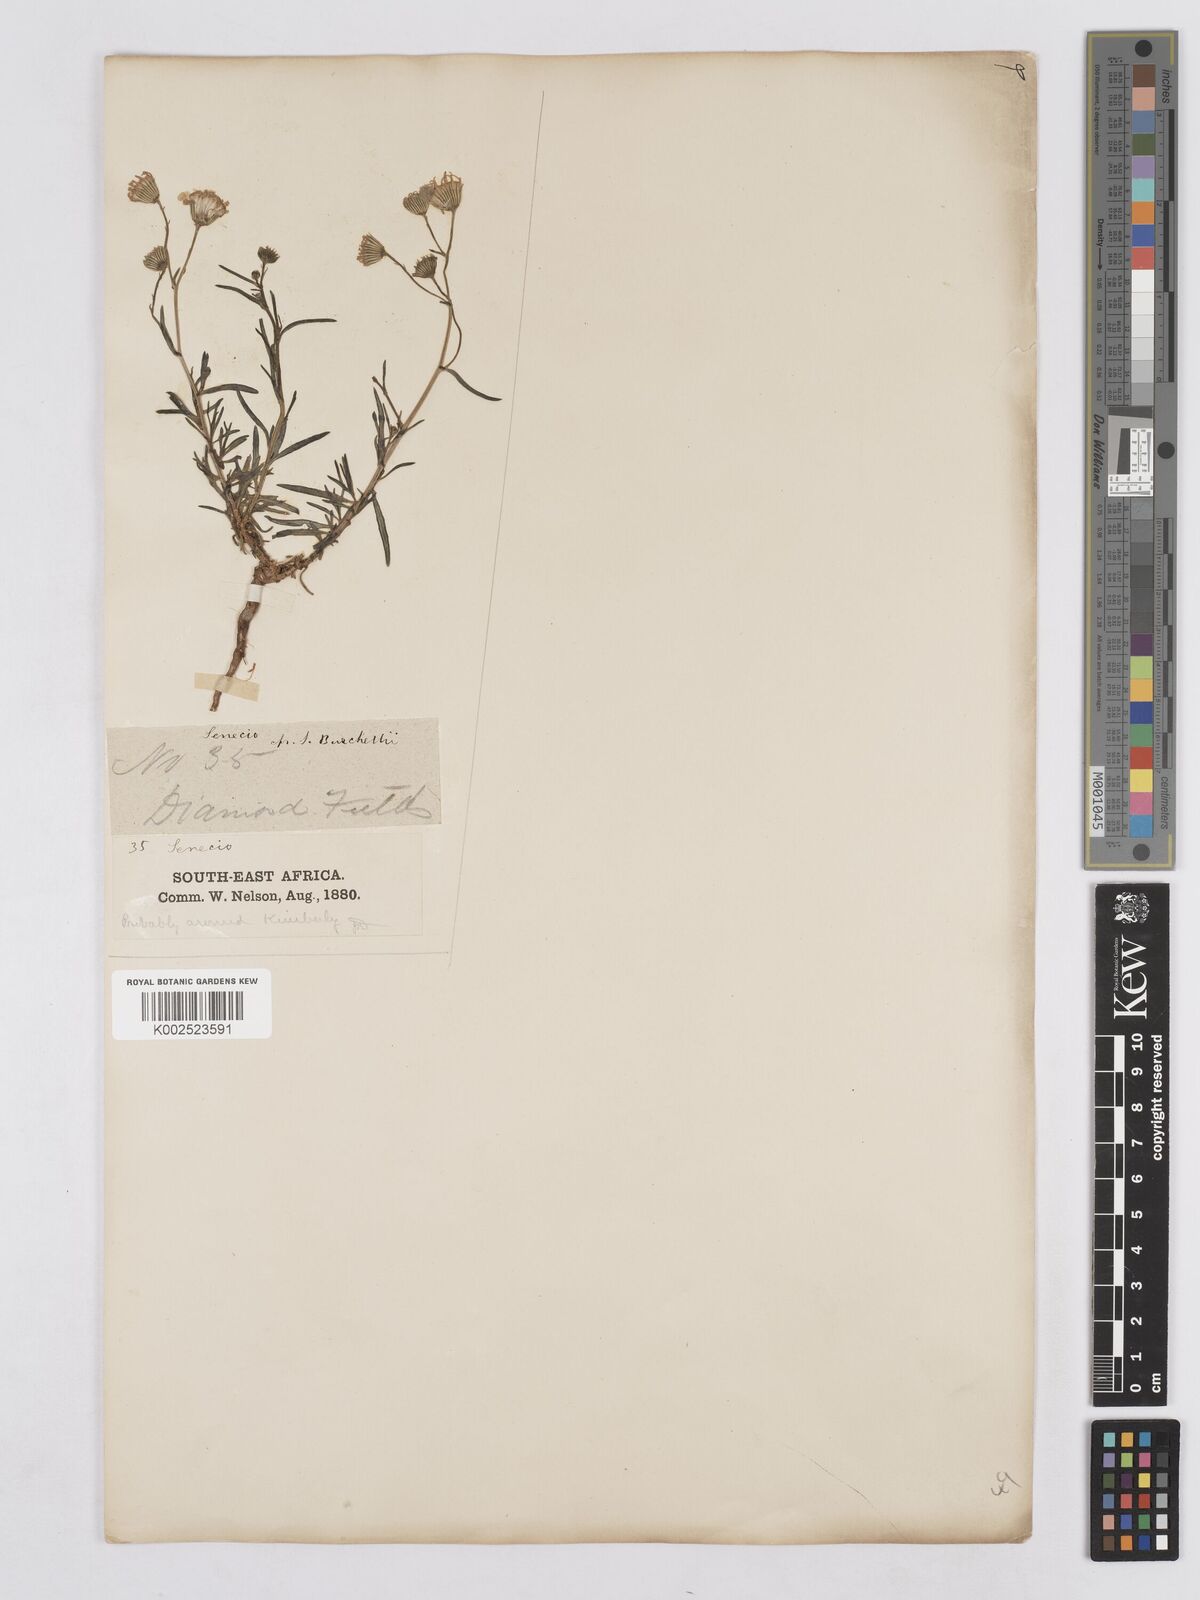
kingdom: Plantae
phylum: Tracheophyta
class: Magnoliopsida
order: Asterales
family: Asteraceae
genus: Senecio
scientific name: Senecio inaequidens
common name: Narrow-leaved ragwort
